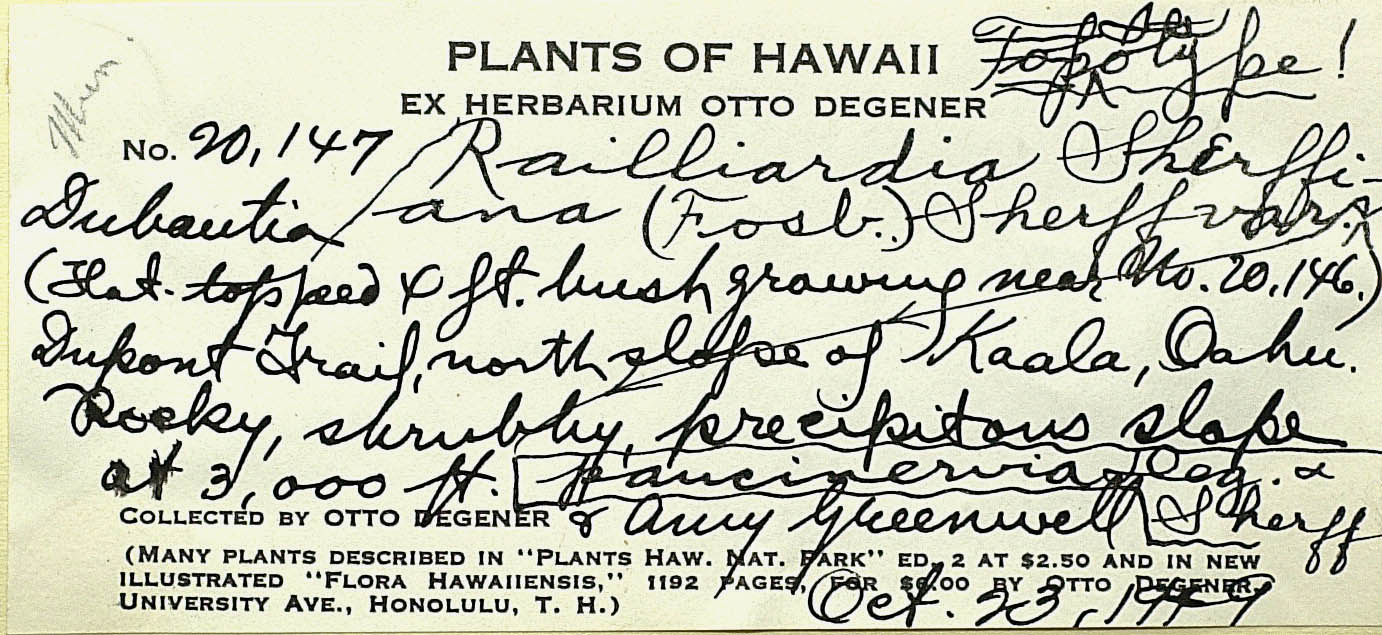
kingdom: Plantae
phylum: Tracheophyta
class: Magnoliopsida
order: Asterales
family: Asteraceae
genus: Dubautia
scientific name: Dubautia sherffiana
